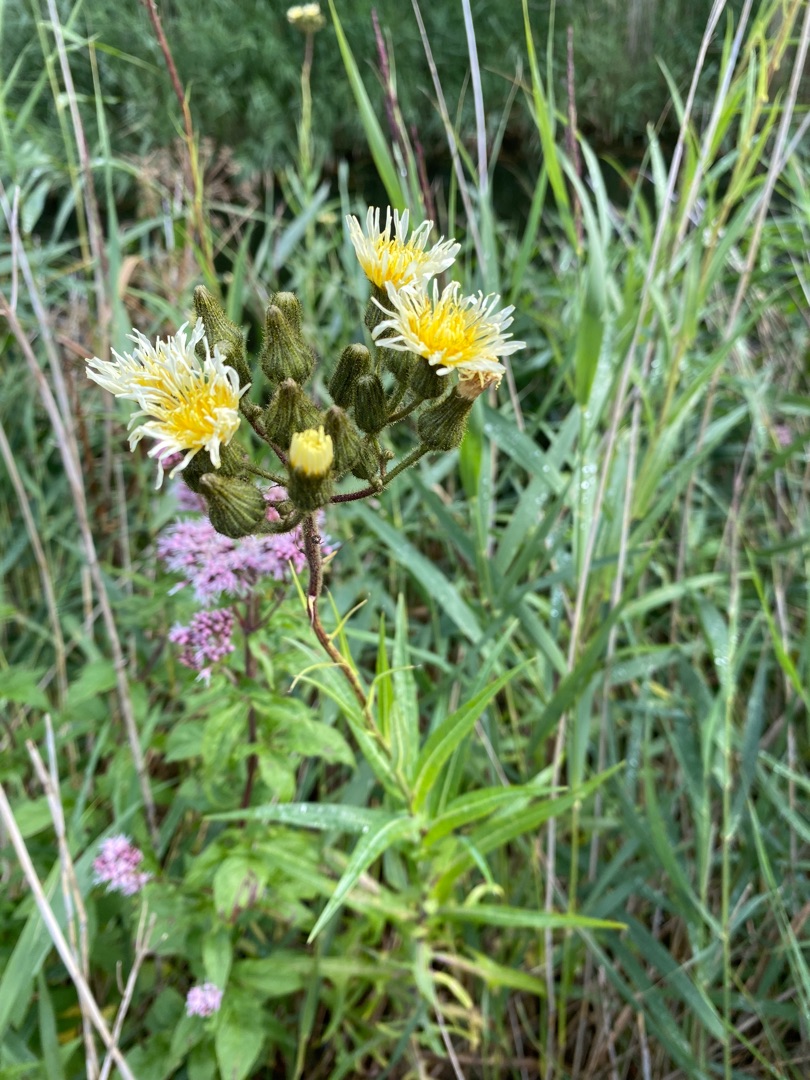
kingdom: Plantae
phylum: Tracheophyta
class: Magnoliopsida
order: Asterales
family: Asteraceae
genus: Sonchus
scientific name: Sonchus palustris
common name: Kær-svinemælk
